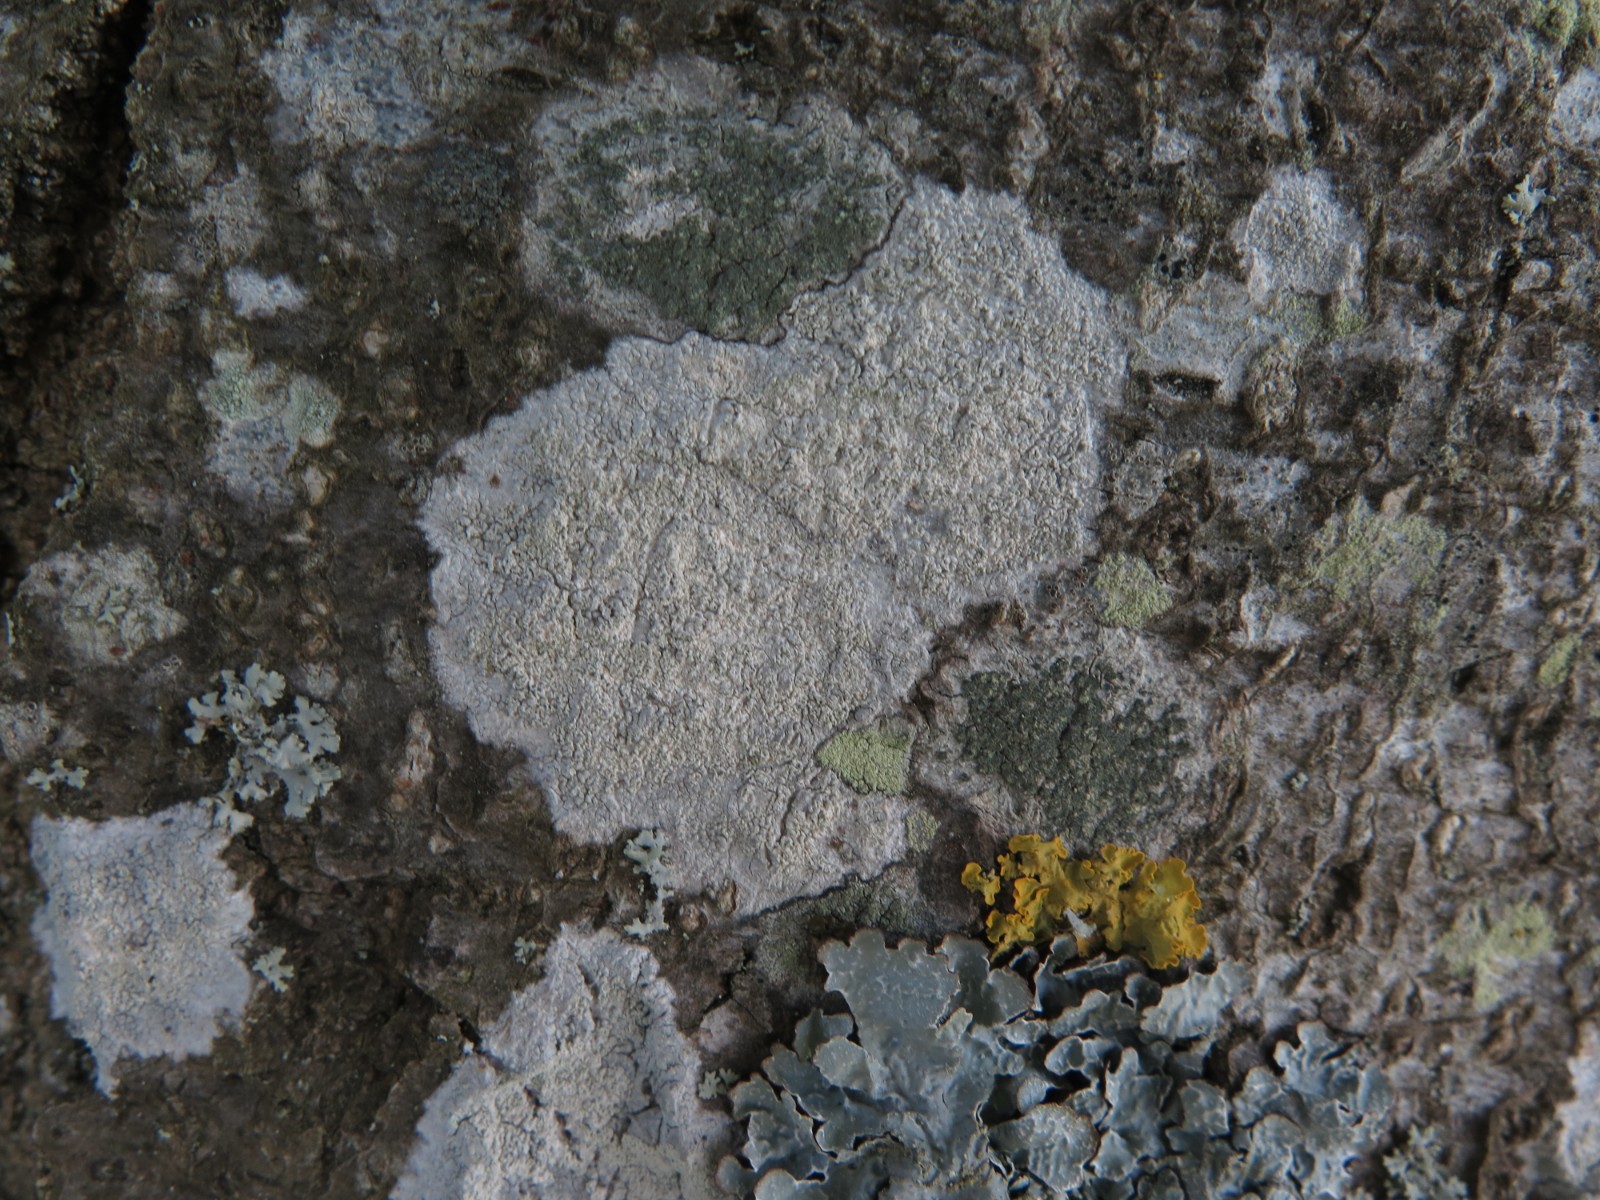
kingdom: Fungi
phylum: Ascomycota
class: Lecanoromycetes
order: Ostropales
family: Phlyctidaceae
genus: Phlyctis
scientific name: Phlyctis argena
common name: almindelig sølvlav
